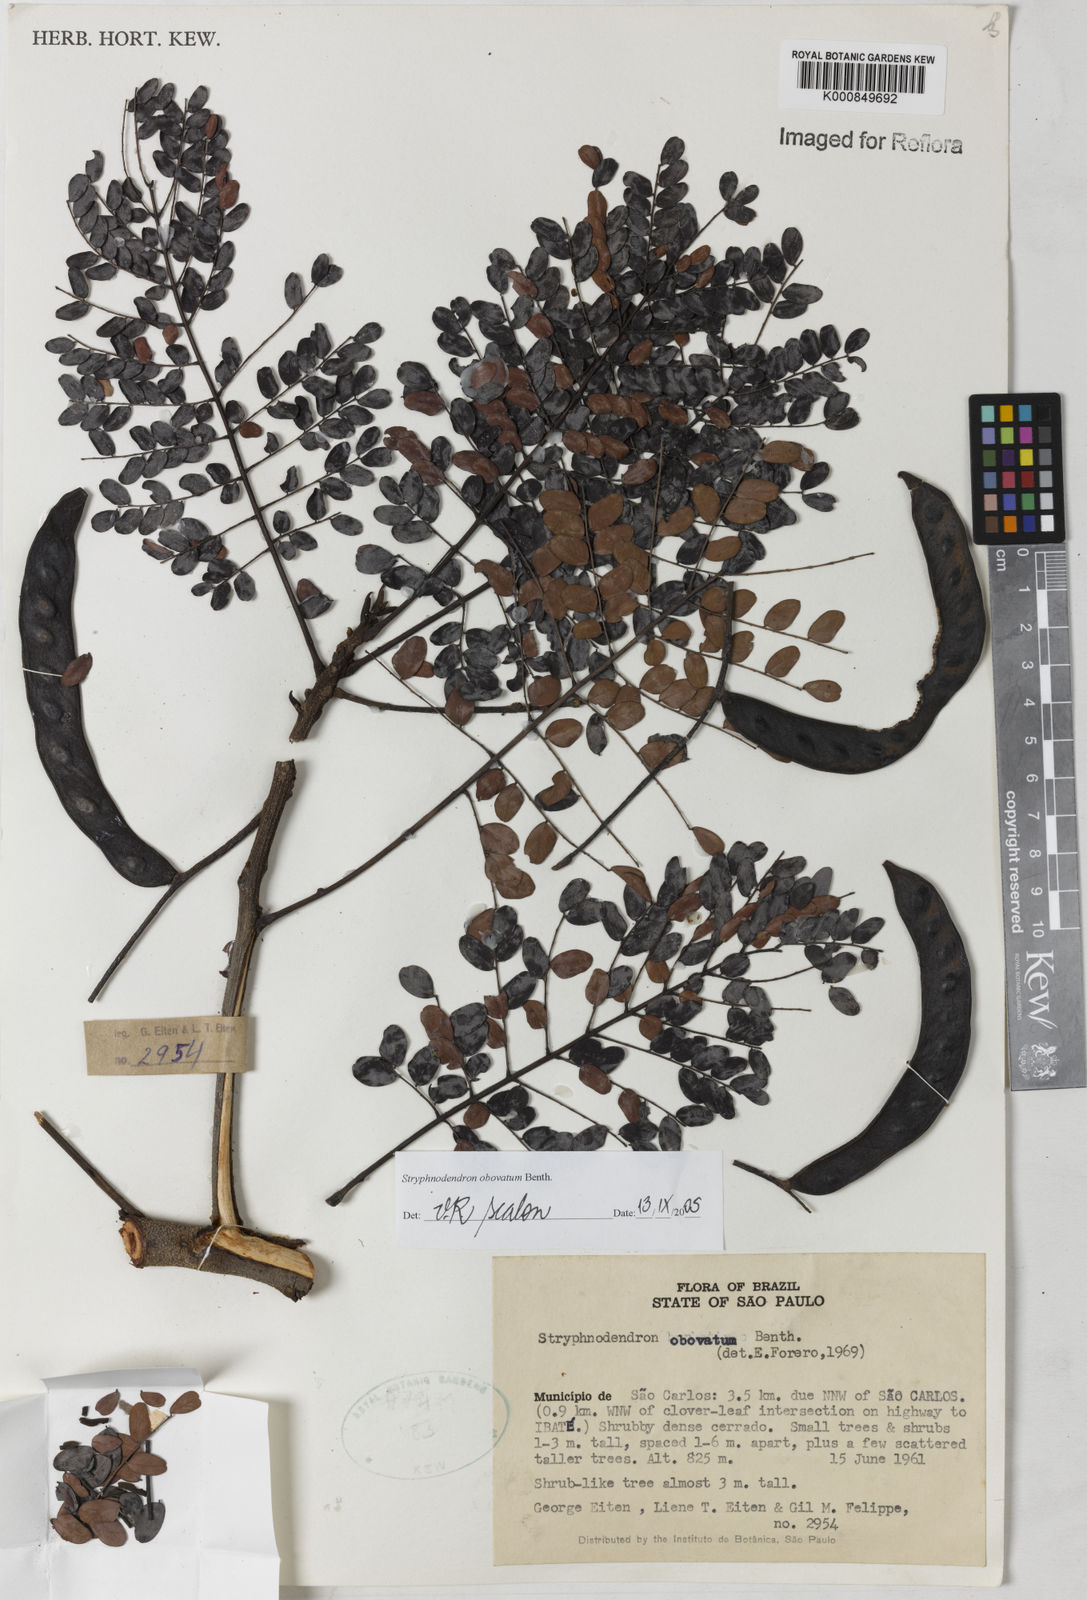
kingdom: Plantae
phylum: Tracheophyta
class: Magnoliopsida
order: Fabales
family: Fabaceae
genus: Stryphnodendron
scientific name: Stryphnodendron rotundifolium
